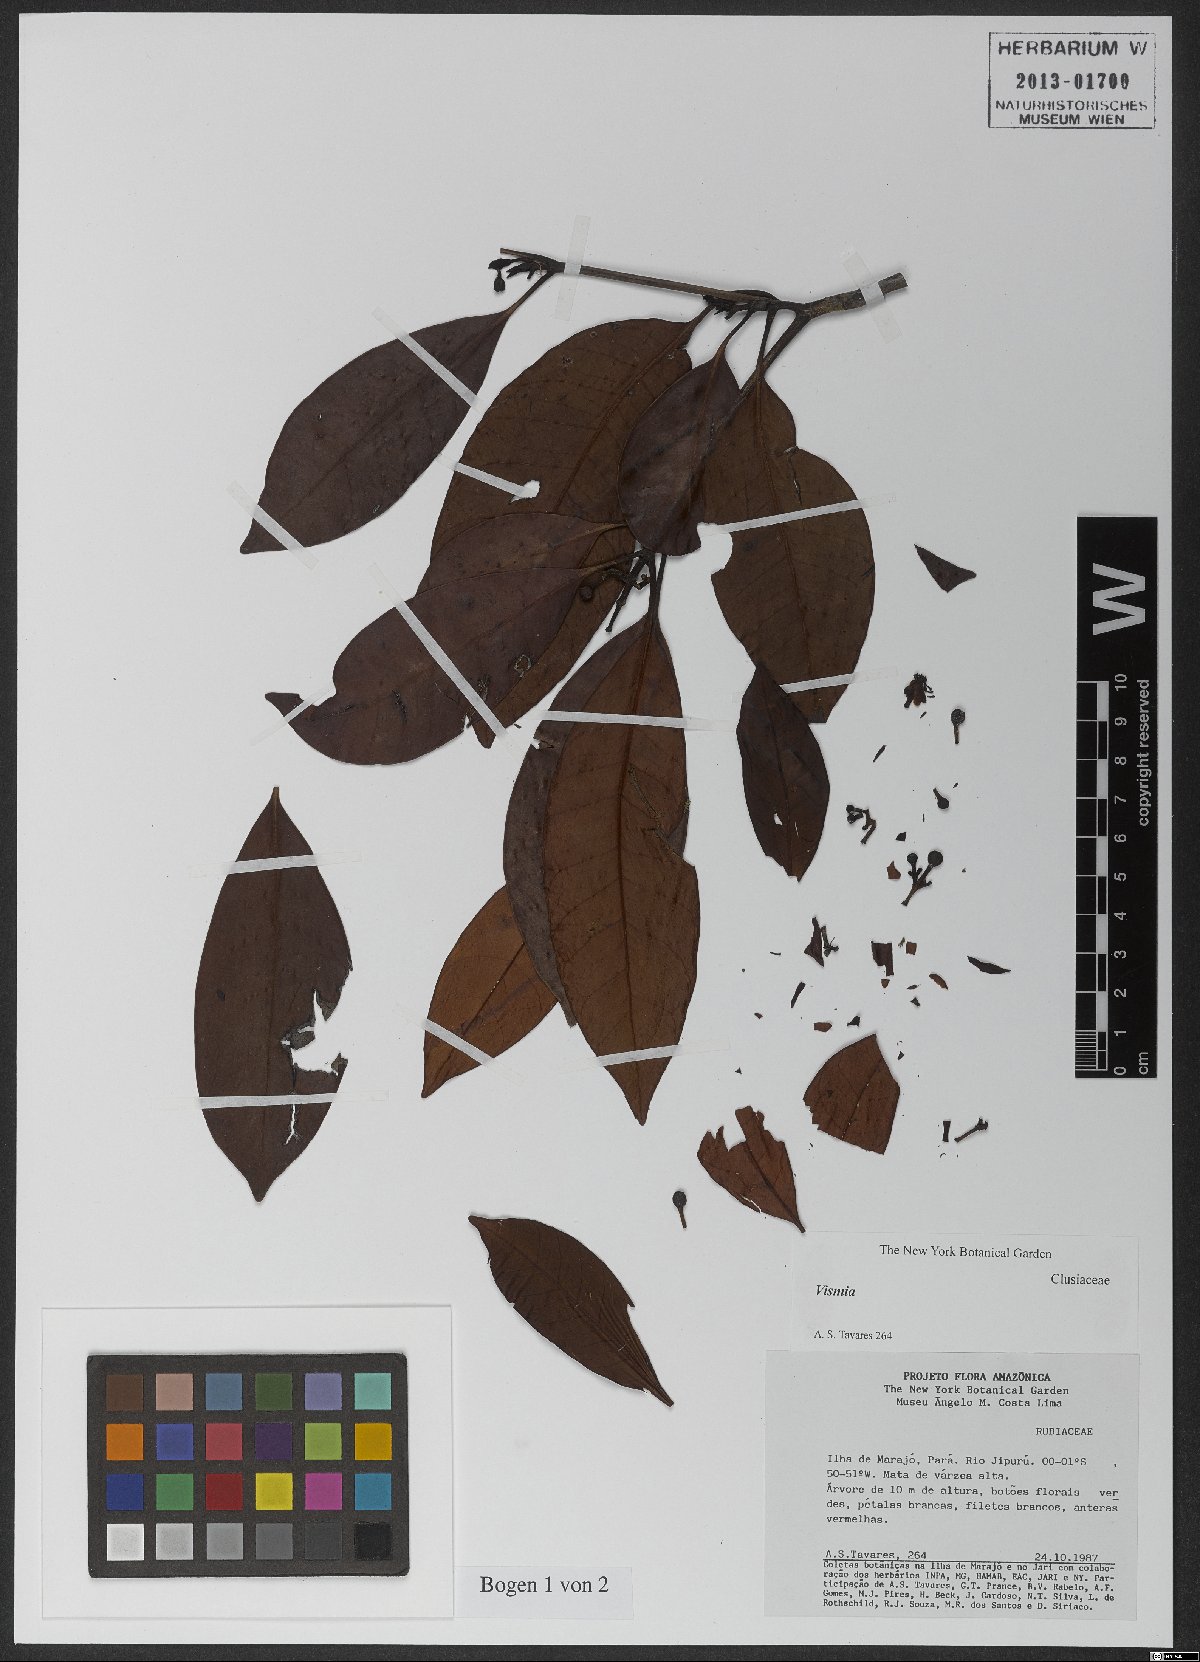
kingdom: Plantae
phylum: Tracheophyta
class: Magnoliopsida
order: Malpighiales
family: Clusiaceae
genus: Tovomita
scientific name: Tovomita brevistaminea
